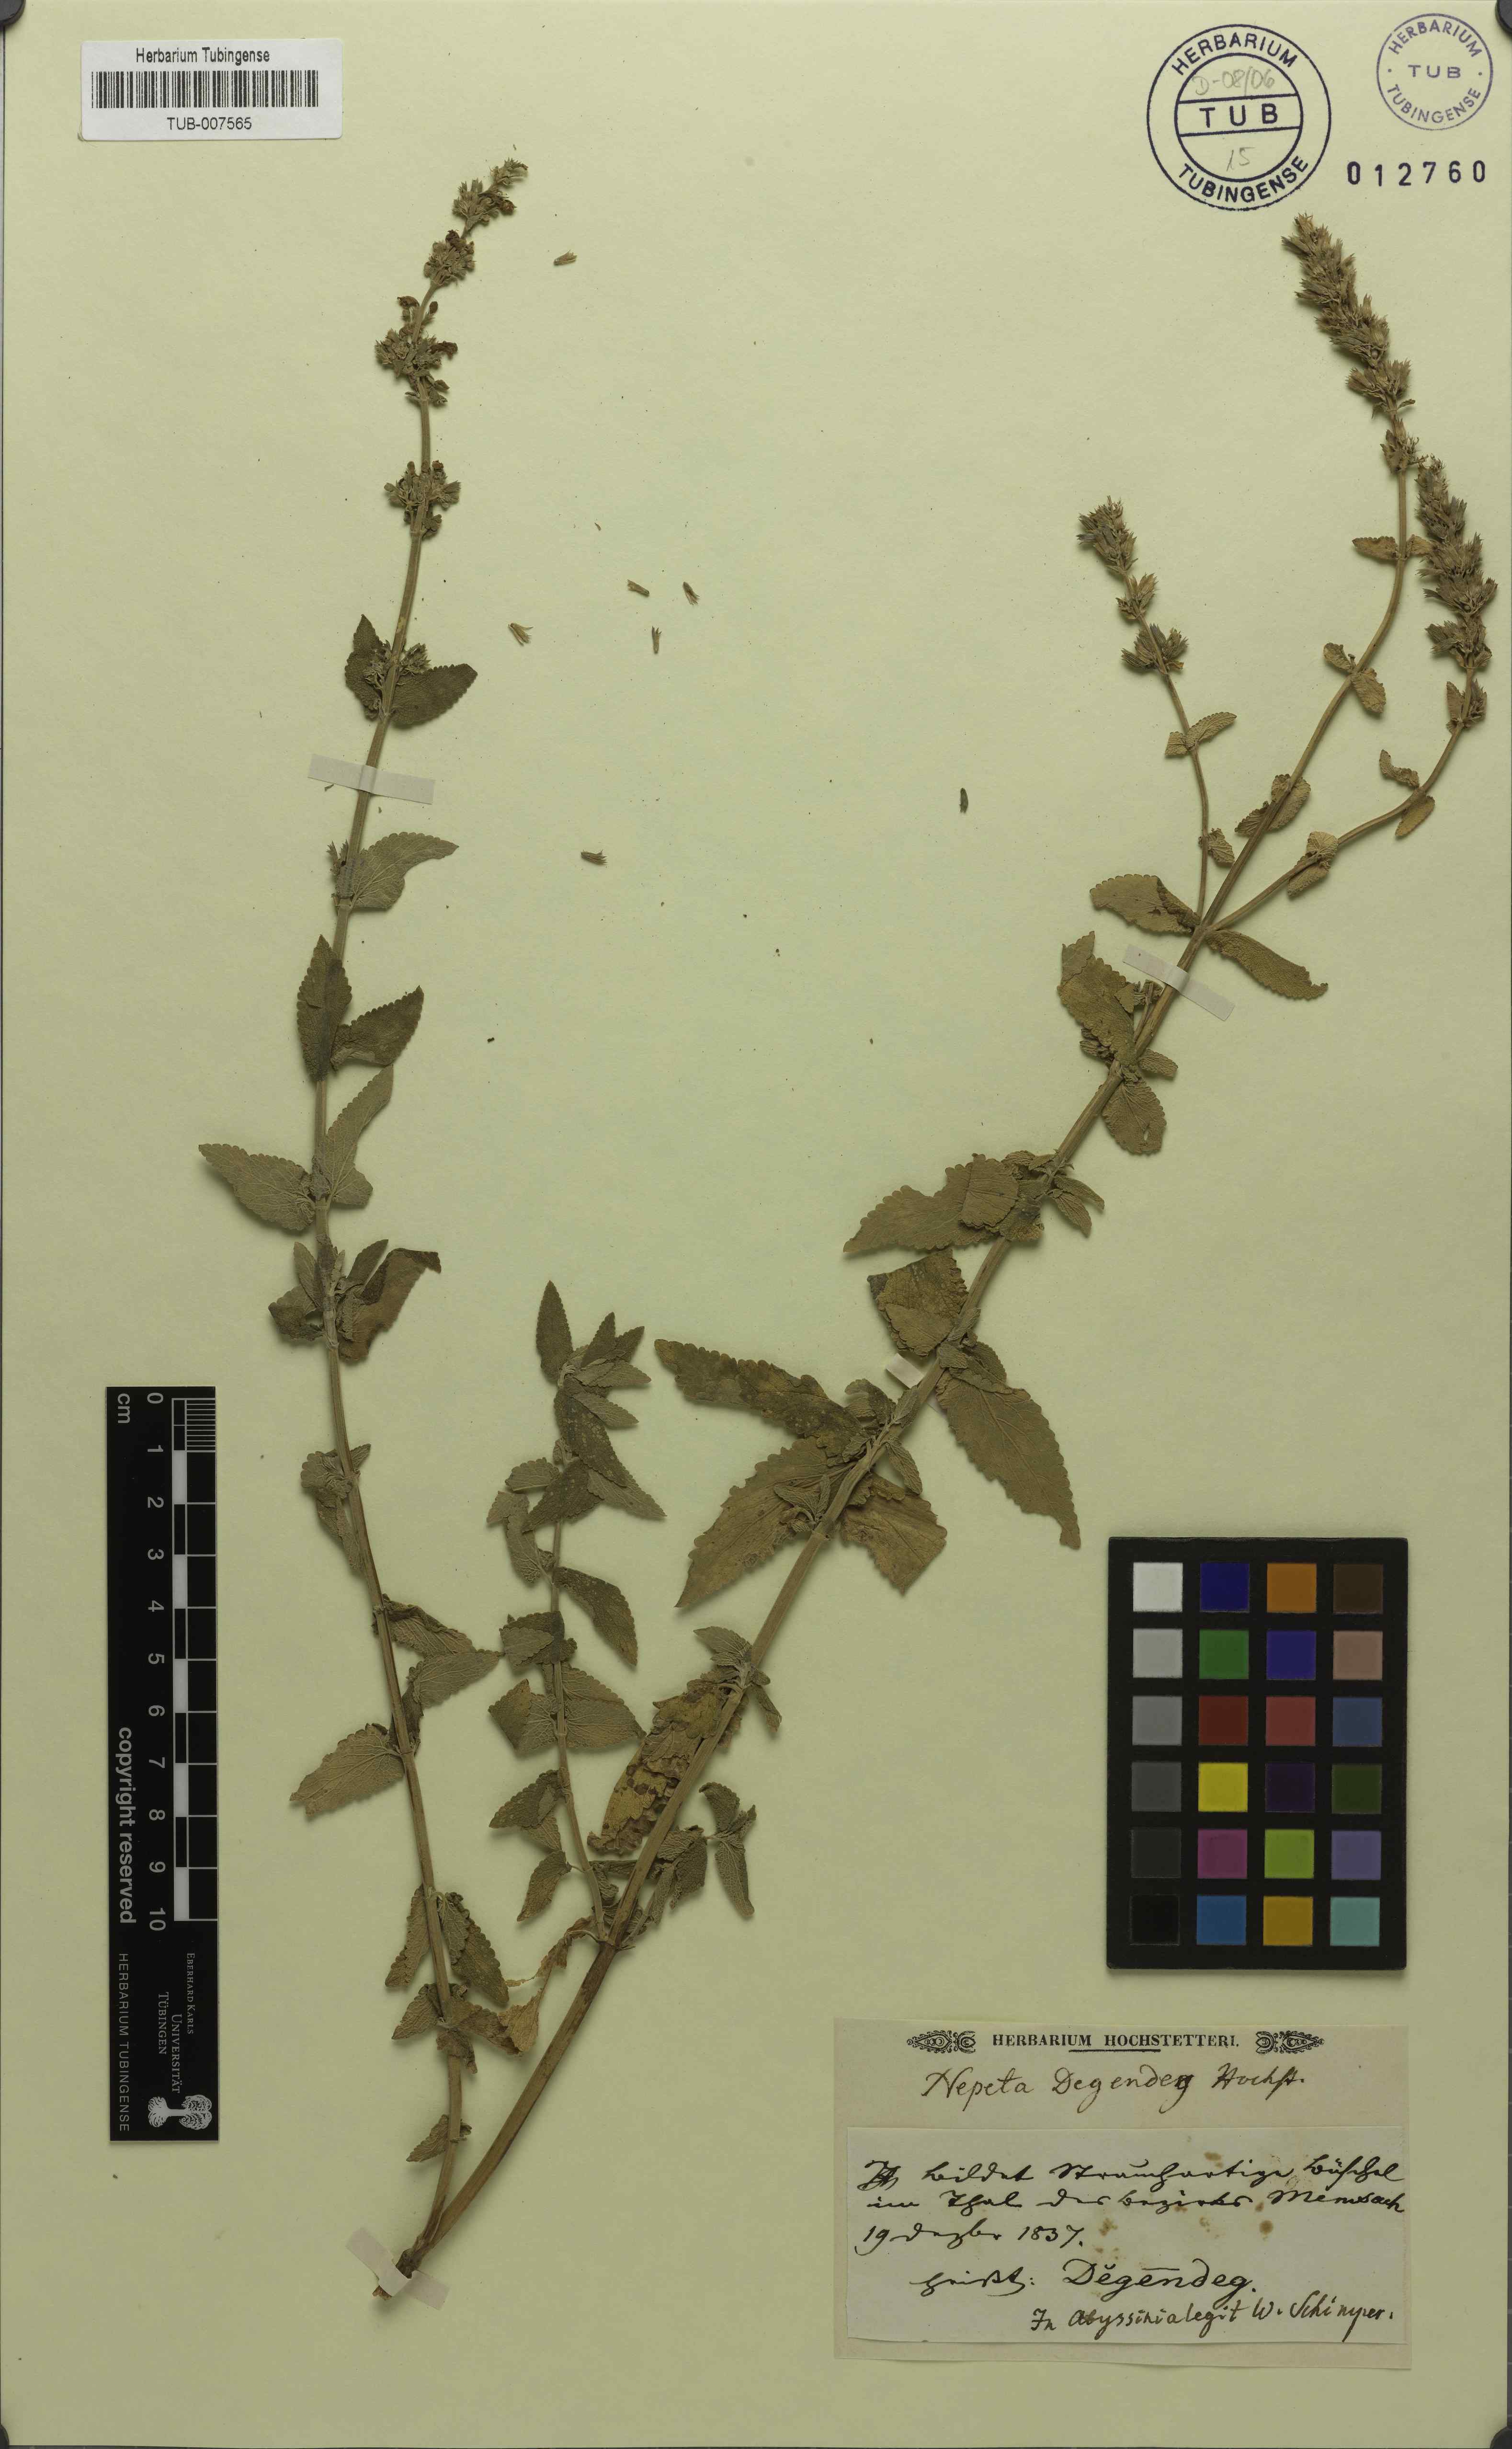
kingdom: Plantae
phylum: Tracheophyta
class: Magnoliopsida
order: Lamiales
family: Lamiaceae
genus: Nepeta
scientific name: Nepeta azurea
